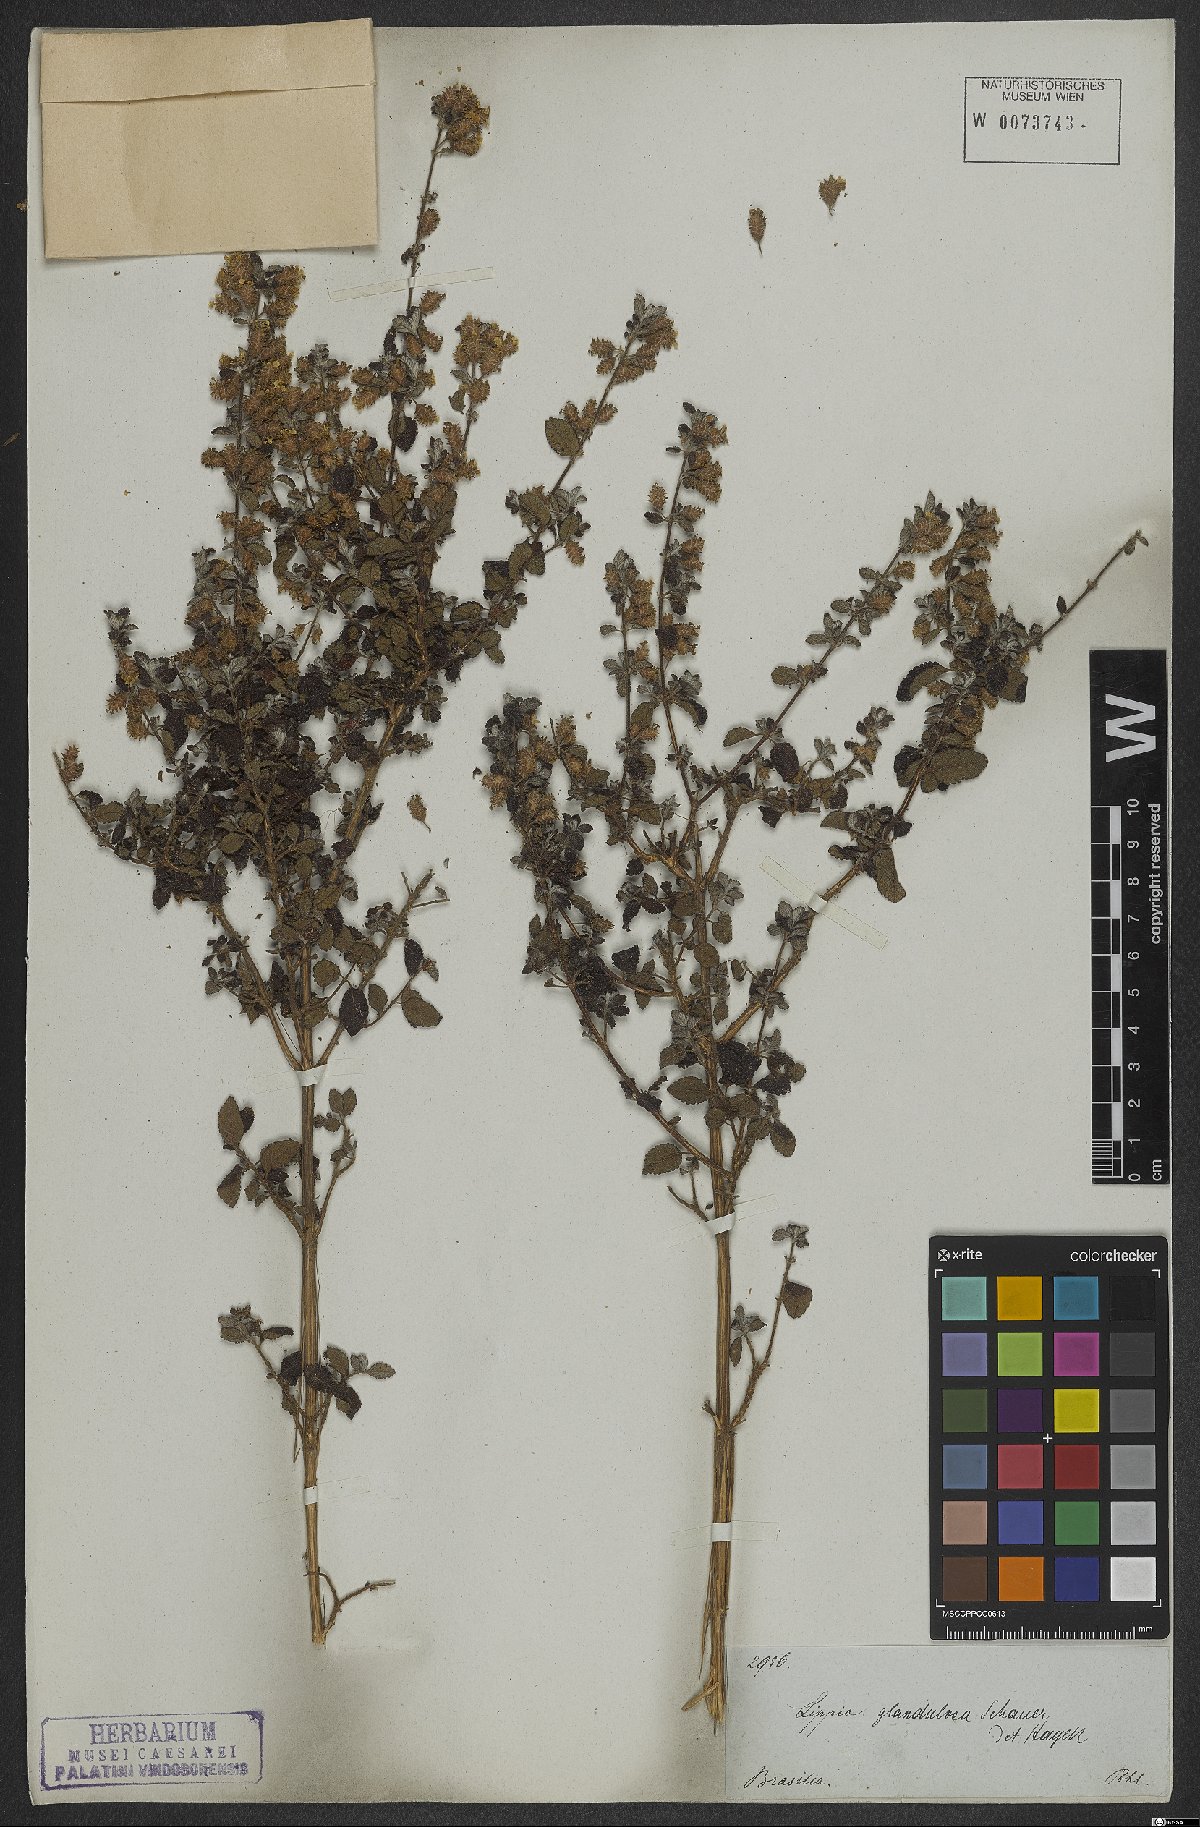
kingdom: Plantae
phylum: Tracheophyta
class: Magnoliopsida
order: Lamiales
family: Verbenaceae
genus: Lippia
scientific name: Lippia origanoides
